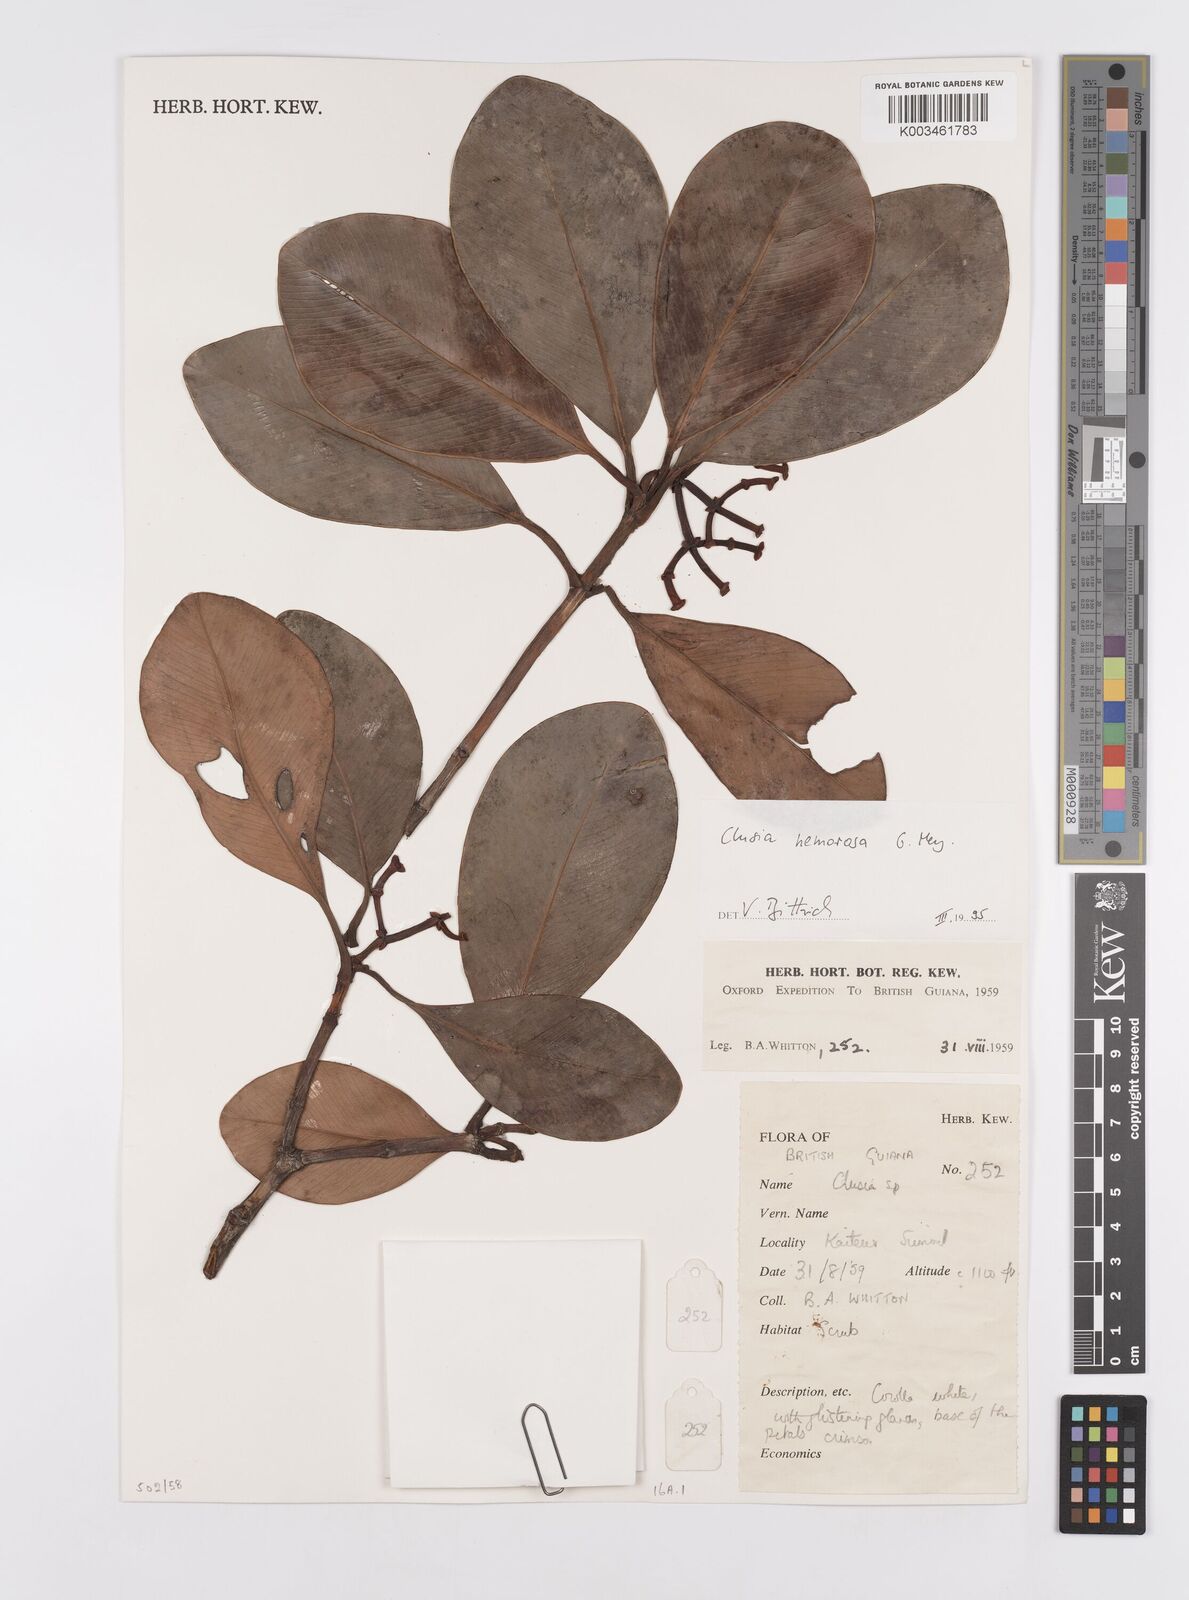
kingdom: Plantae
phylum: Tracheophyta
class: Magnoliopsida
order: Malpighiales
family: Clusiaceae
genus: Clusia
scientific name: Clusia nemorosa
